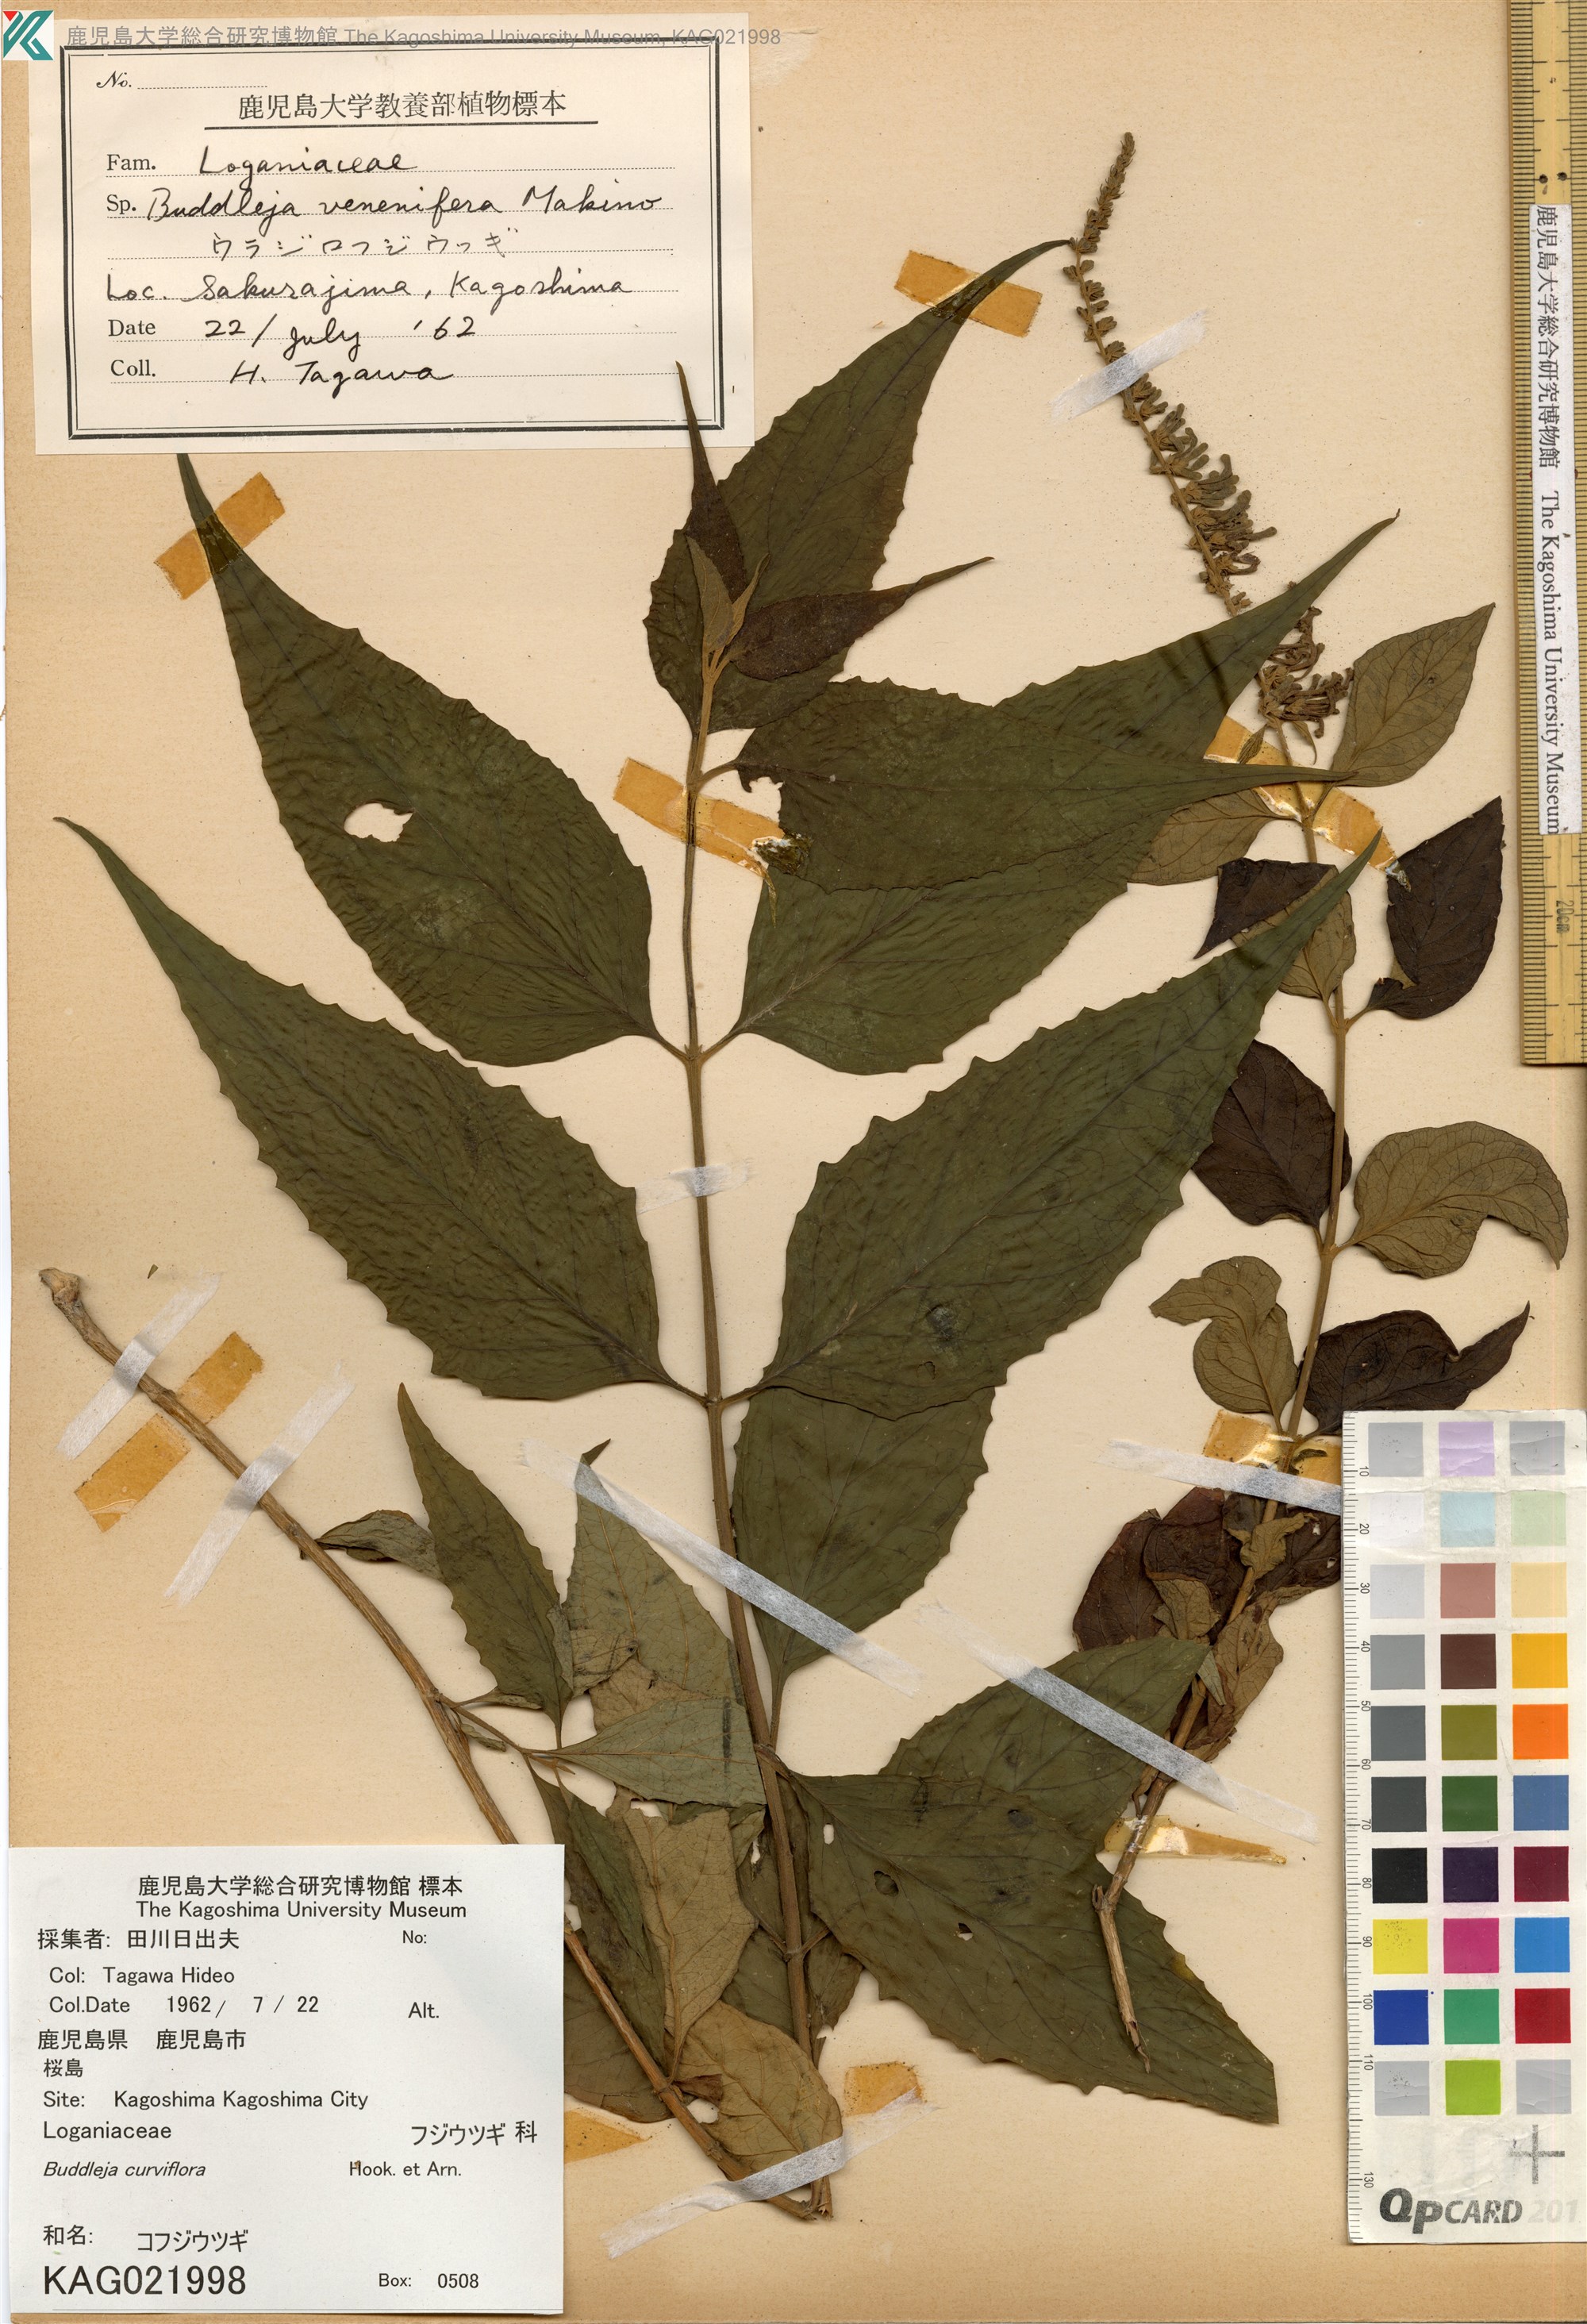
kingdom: Plantae
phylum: Tracheophyta
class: Magnoliopsida
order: Lamiales
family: Scrophulariaceae
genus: Buddleja
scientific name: Buddleja curviflora
